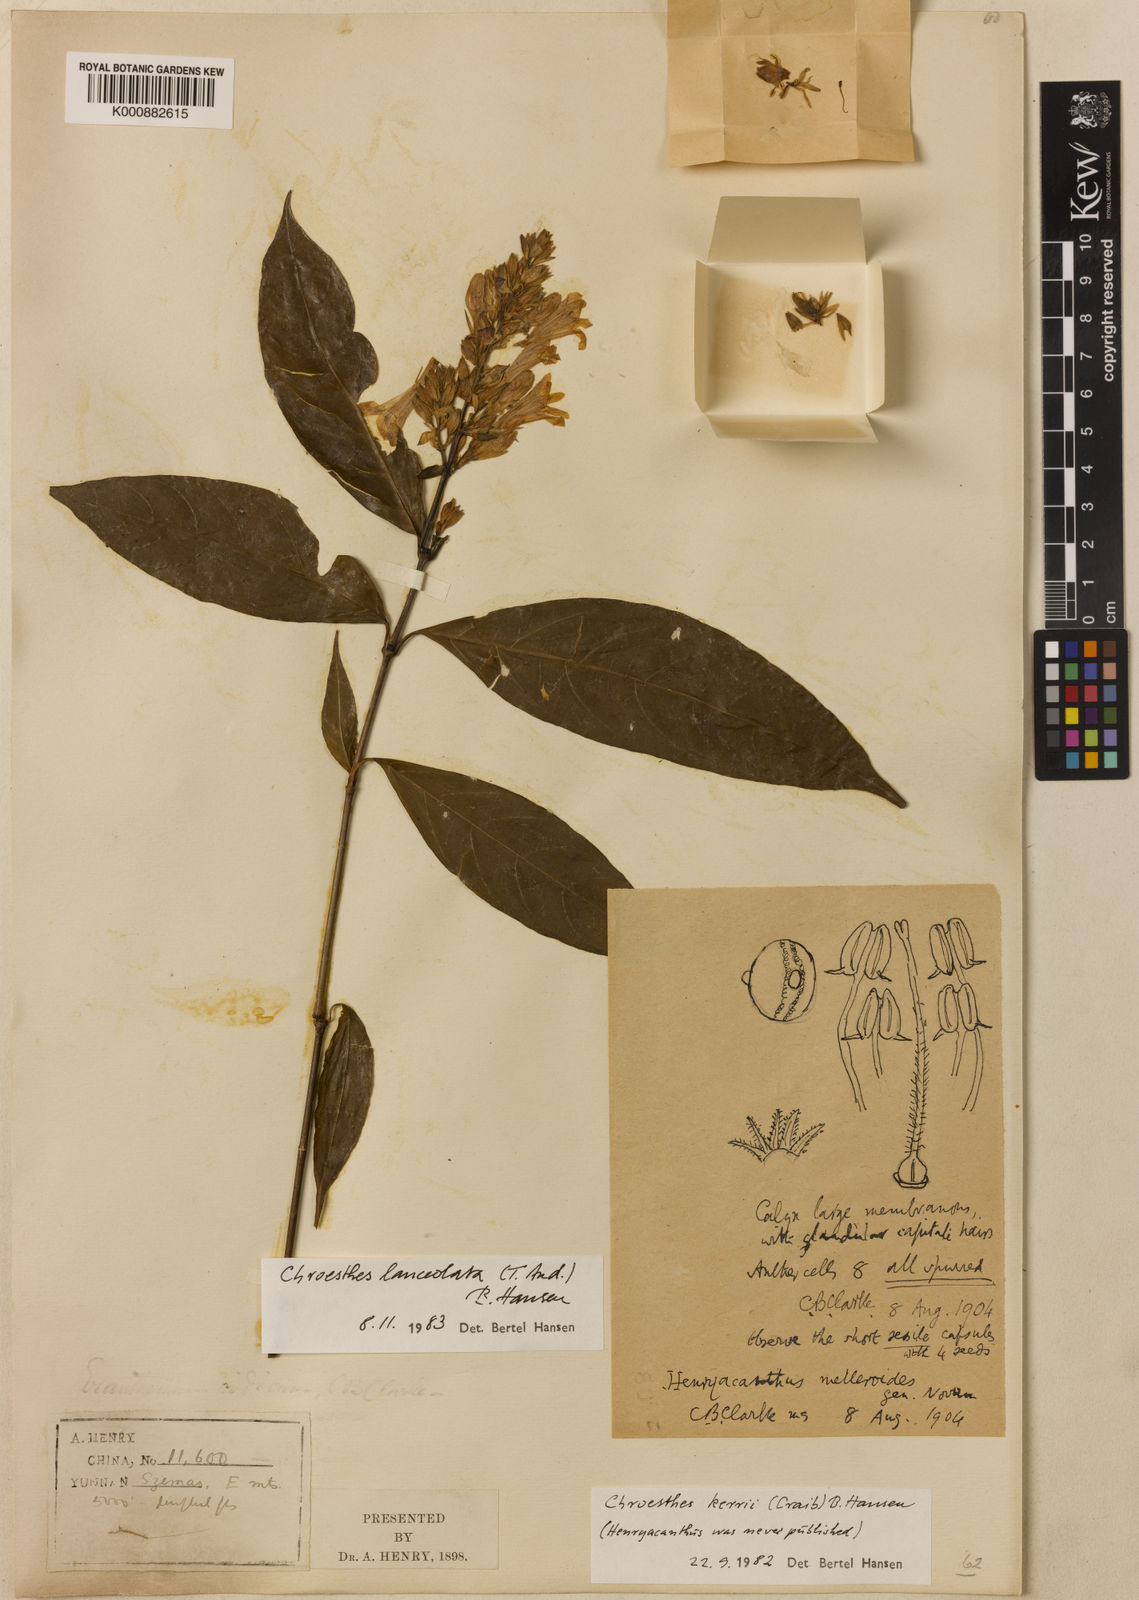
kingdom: Plantae
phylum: Tracheophyta
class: Magnoliopsida
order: Lamiales
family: Acanthaceae
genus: Chroesthes
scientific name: Chroesthes lanceolata
